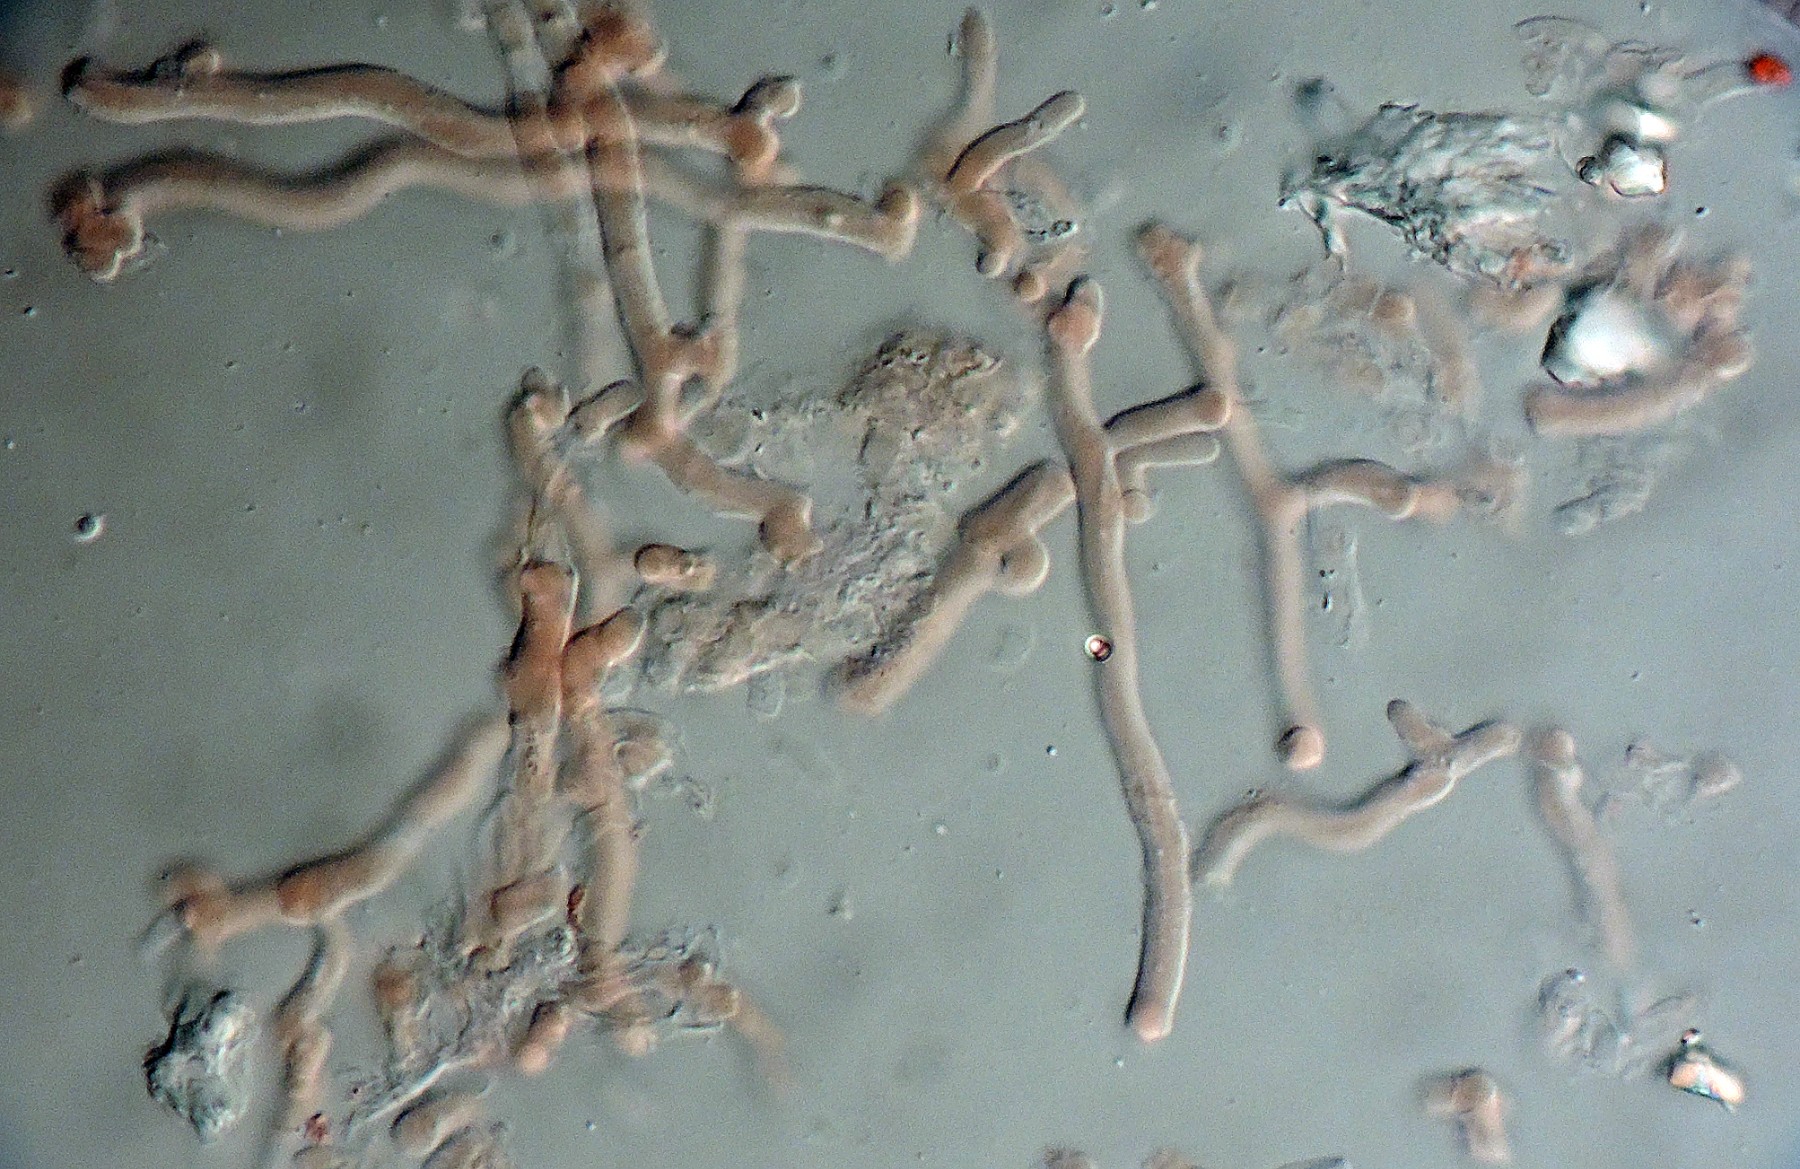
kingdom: Fungi
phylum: Basidiomycota
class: Agaricomycetes
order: Polyporales
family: Fomitopsidaceae
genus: Fomitopsis
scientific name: Fomitopsis
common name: pile-skiveporesvamp
